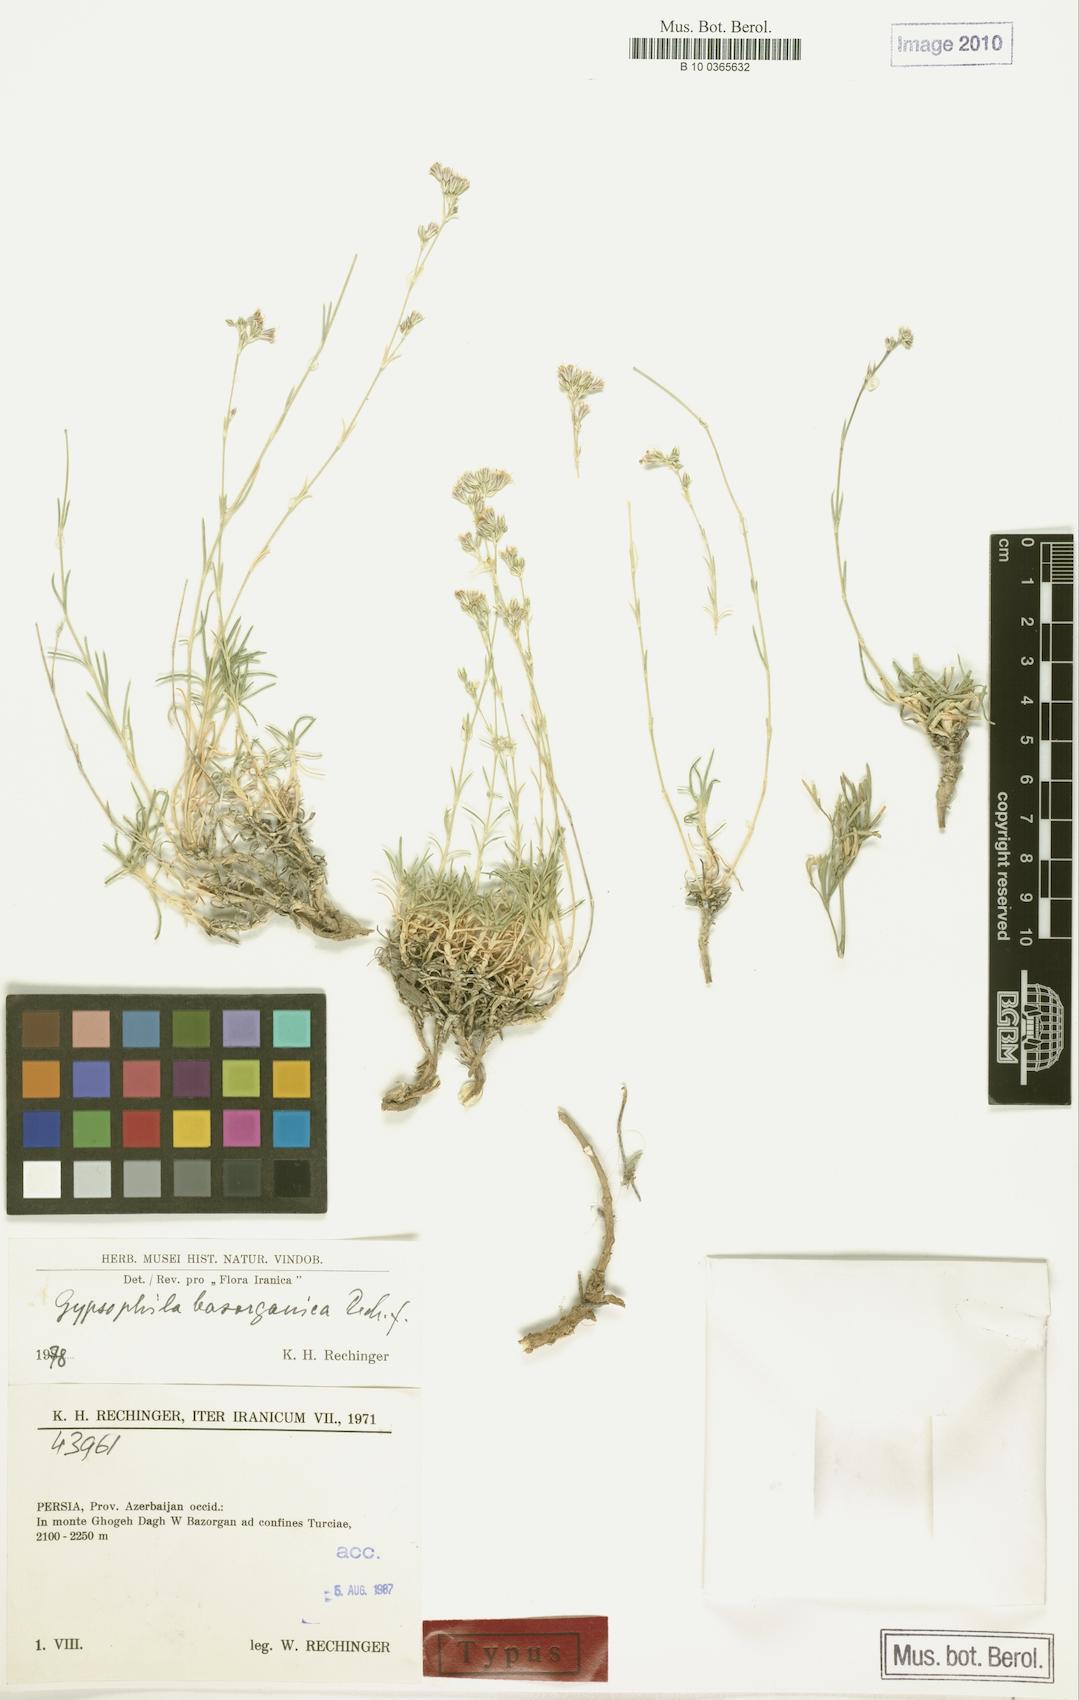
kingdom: Plantae
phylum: Tracheophyta
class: Magnoliopsida
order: Caryophyllales
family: Caryophyllaceae
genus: Gypsophila
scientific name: Gypsophila bazorganica
